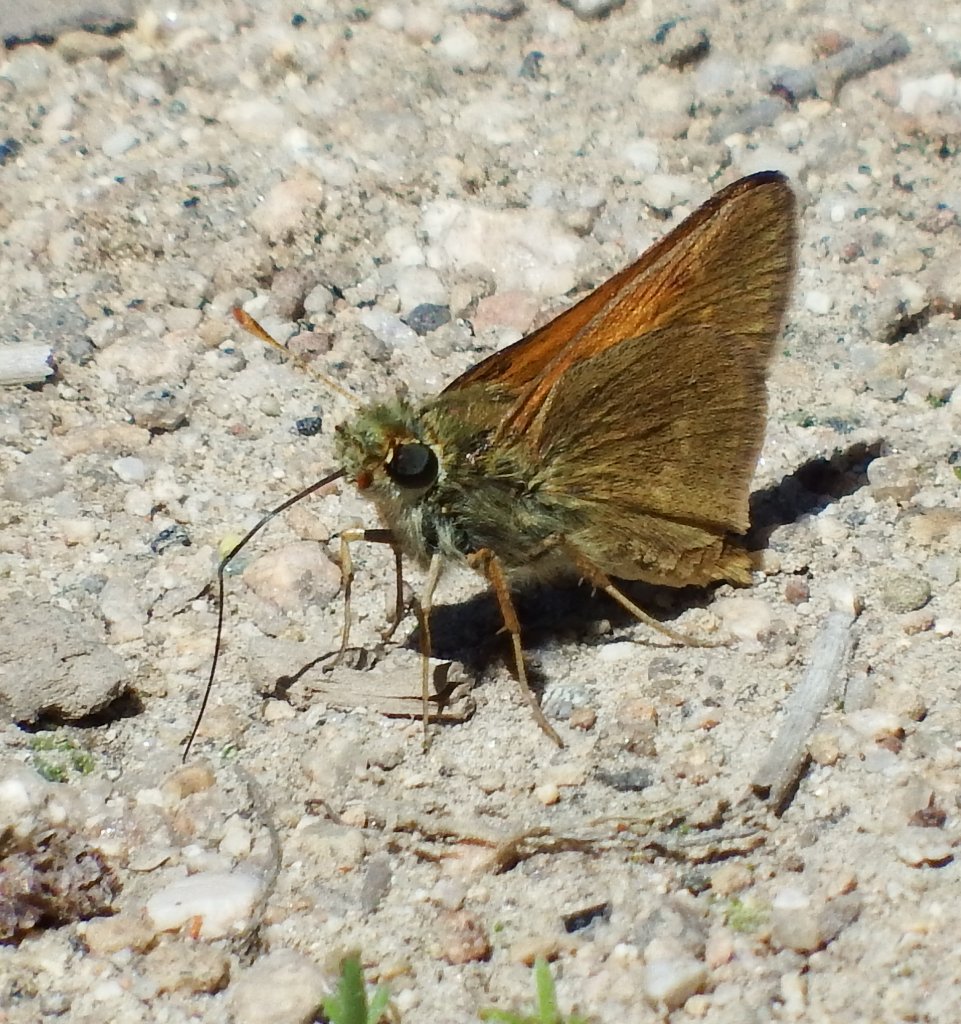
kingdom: Animalia
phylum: Arthropoda
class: Insecta
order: Lepidoptera
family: Hesperiidae
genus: Polites
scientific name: Polites themistocles
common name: Tawny-edged Skipper
